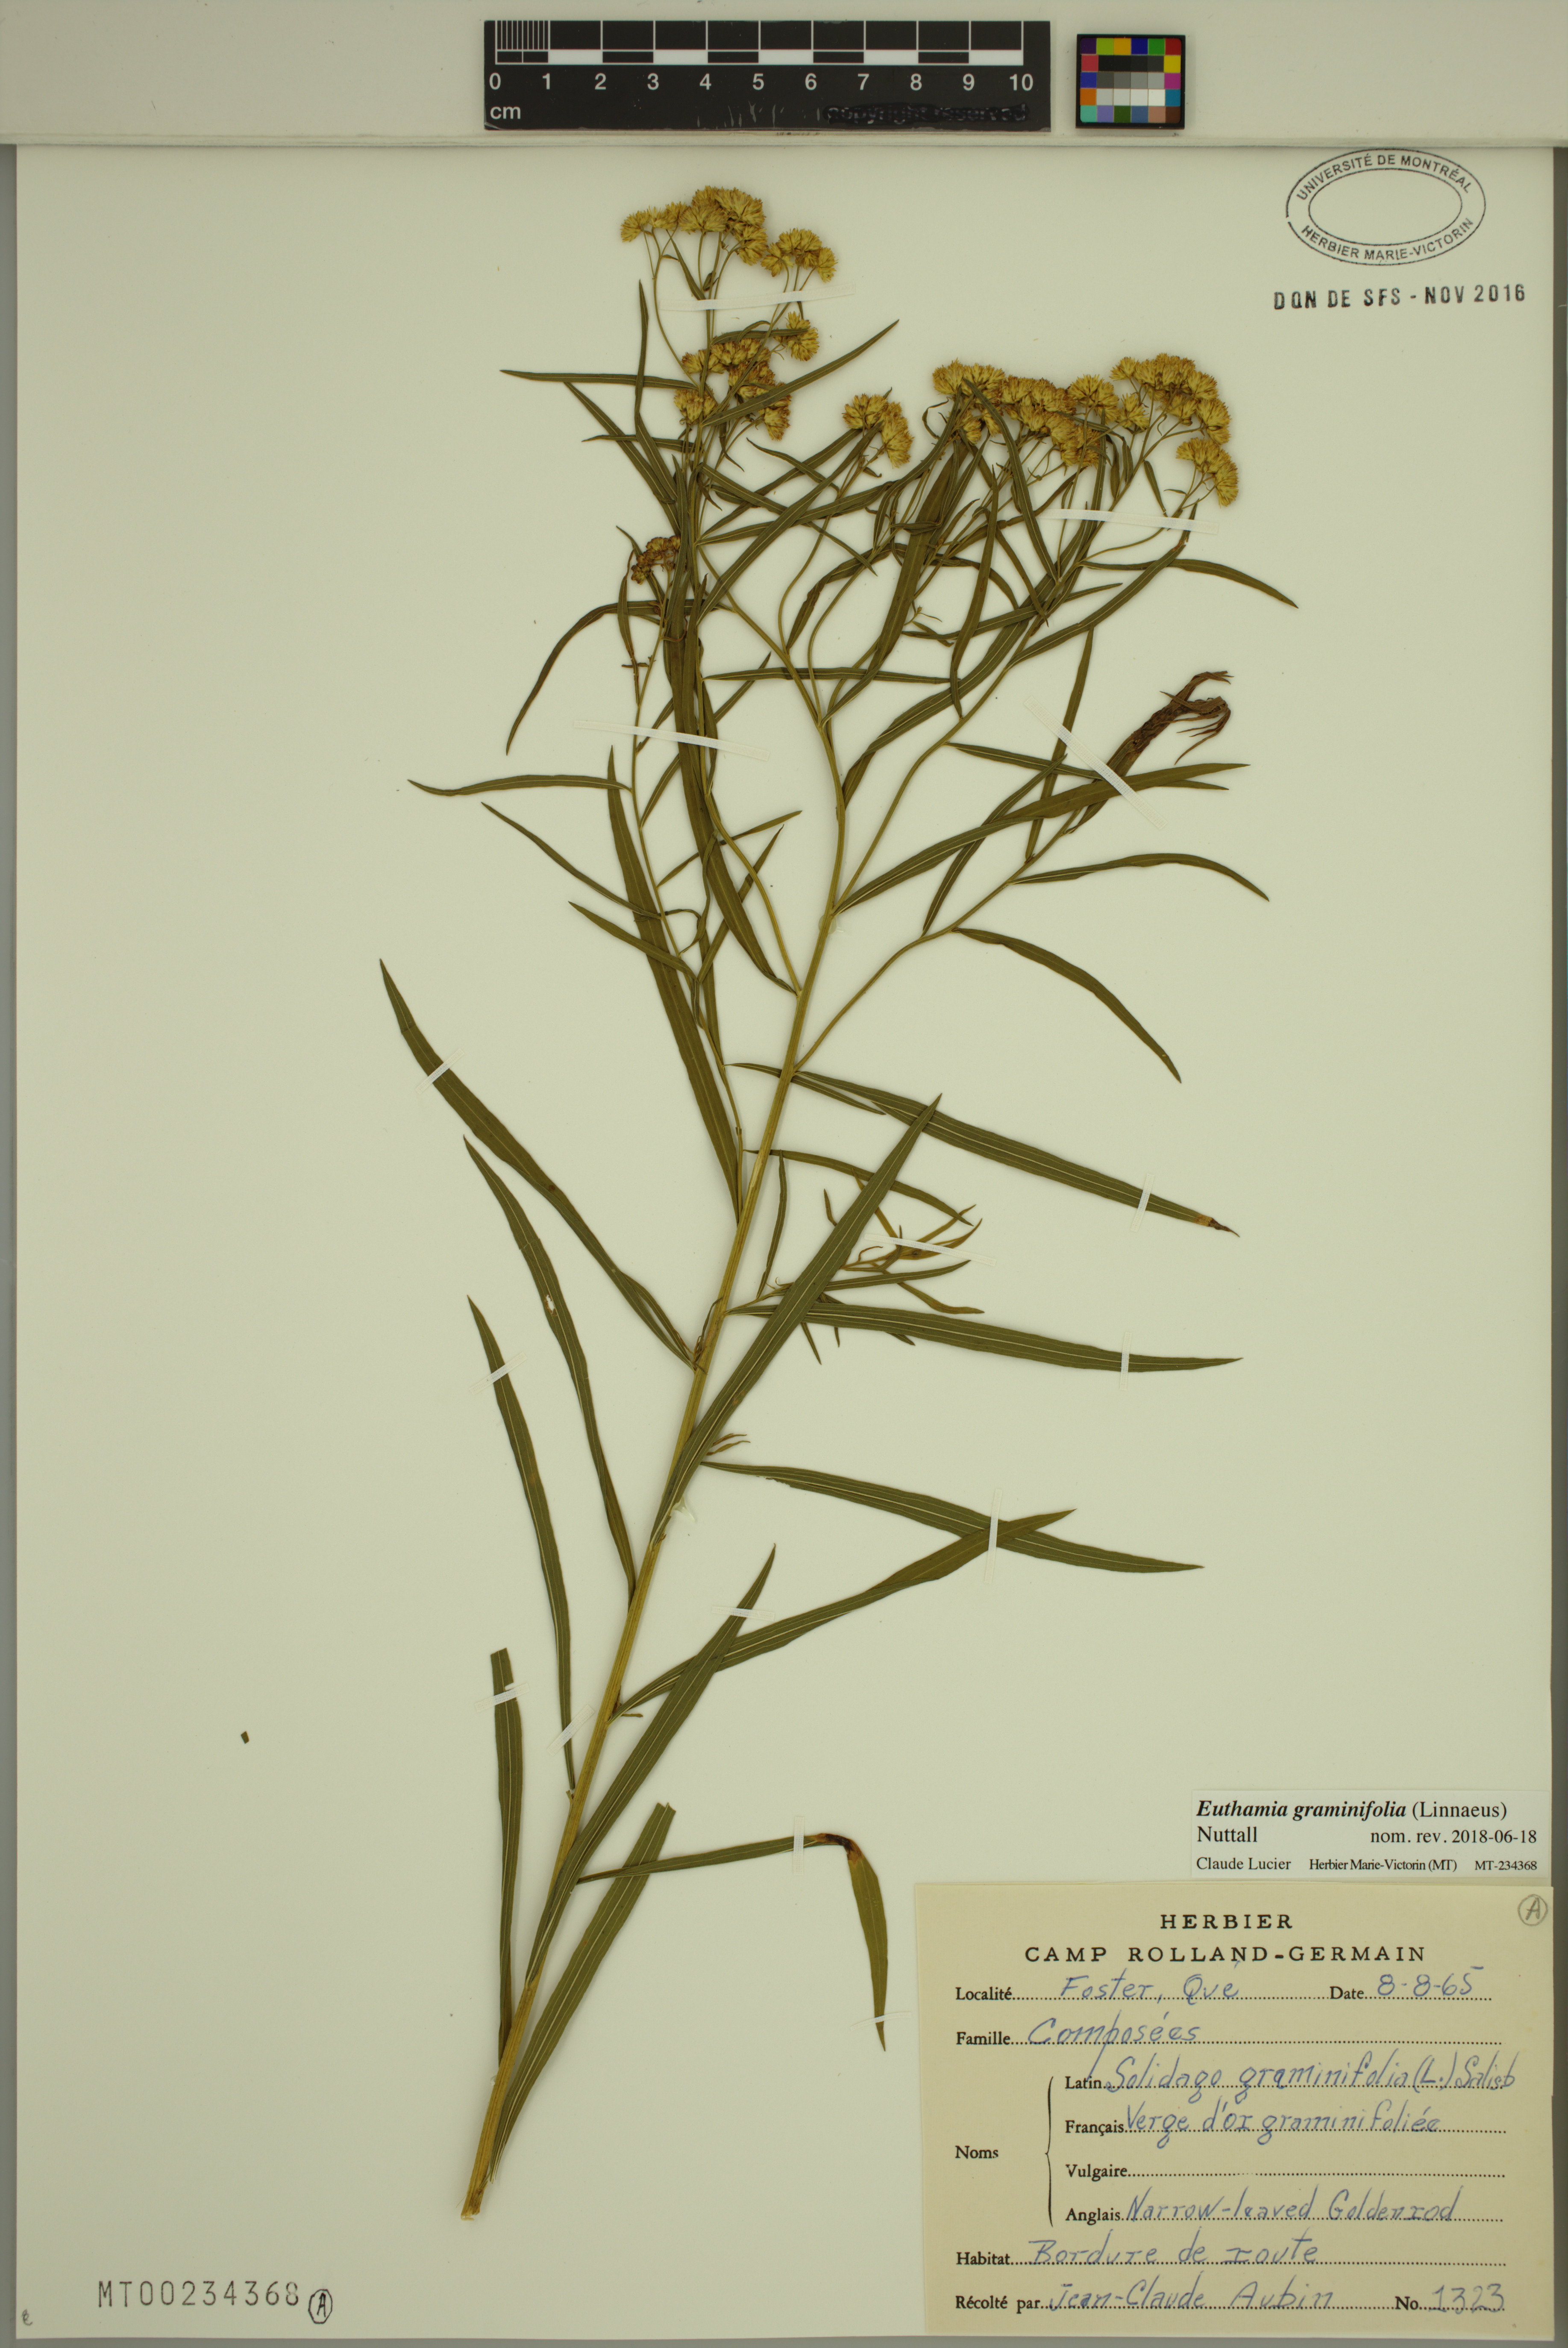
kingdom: Plantae
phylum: Tracheophyta
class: Magnoliopsida
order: Asterales
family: Asteraceae
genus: Euthamia
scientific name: Euthamia graminifolia
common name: Common goldentop
